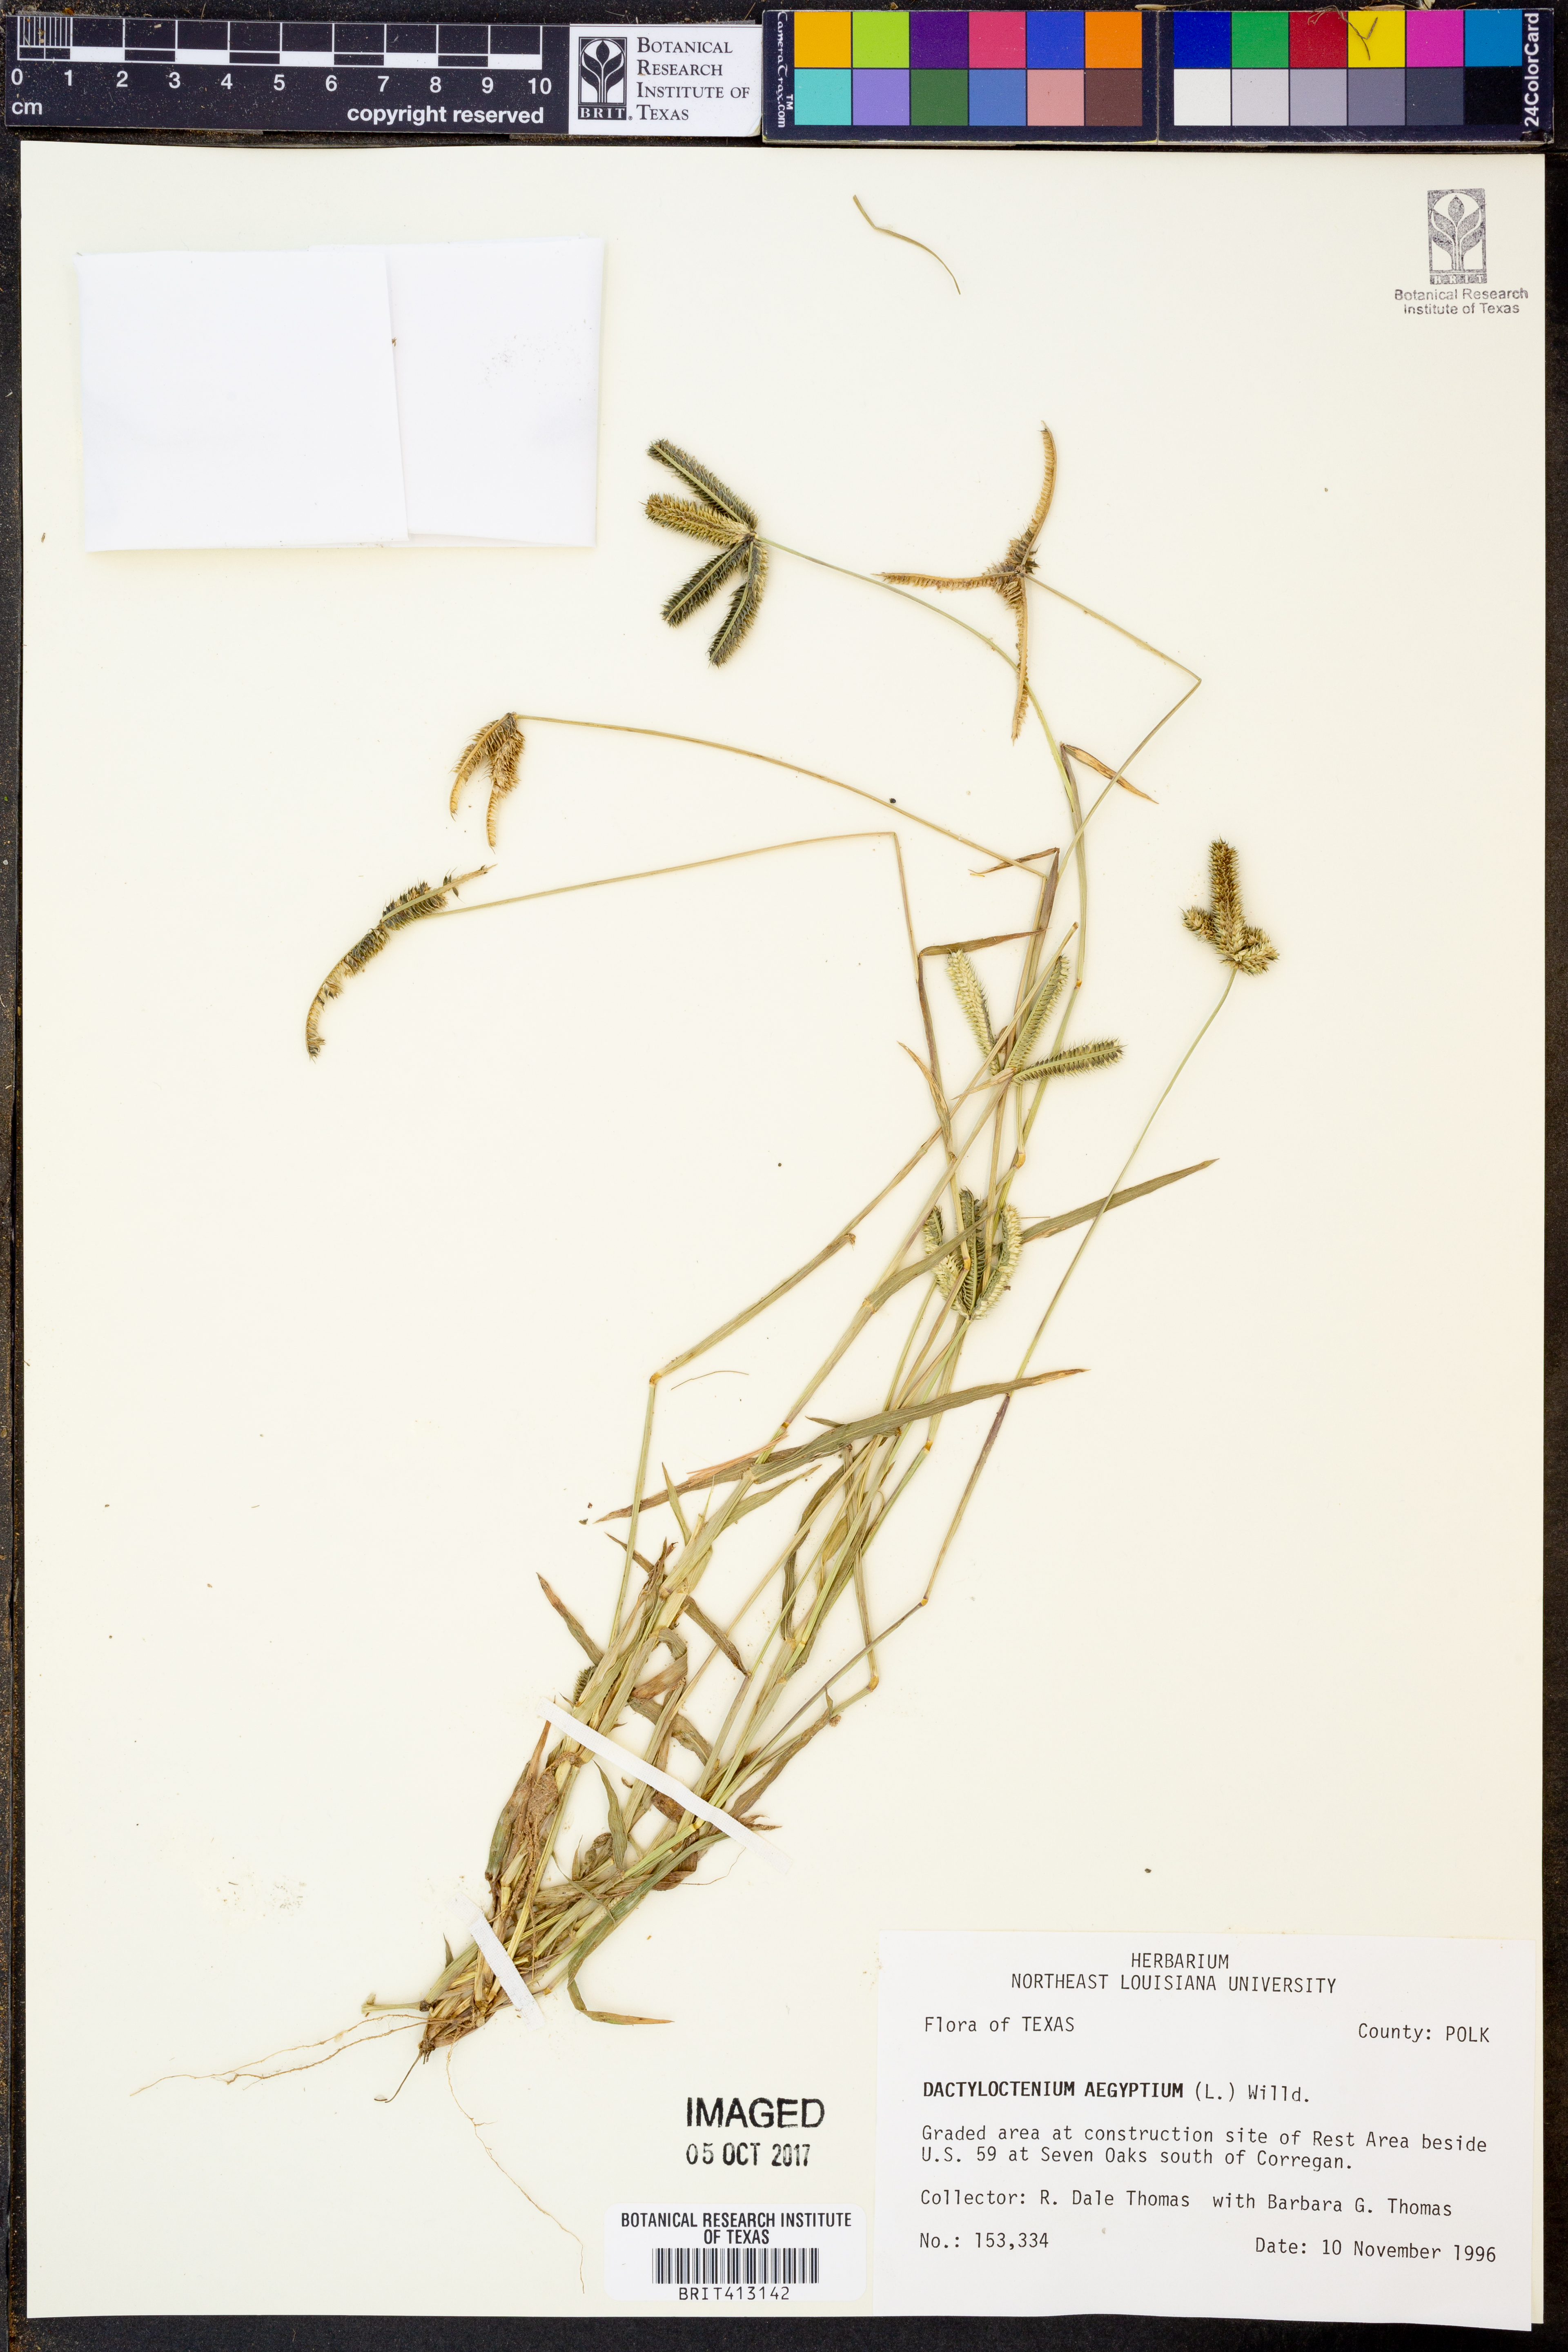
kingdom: Plantae
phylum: Tracheophyta
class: Liliopsida
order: Poales
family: Poaceae
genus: Dactyloctenium
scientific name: Dactyloctenium aegyptium
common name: Egyptian grass
